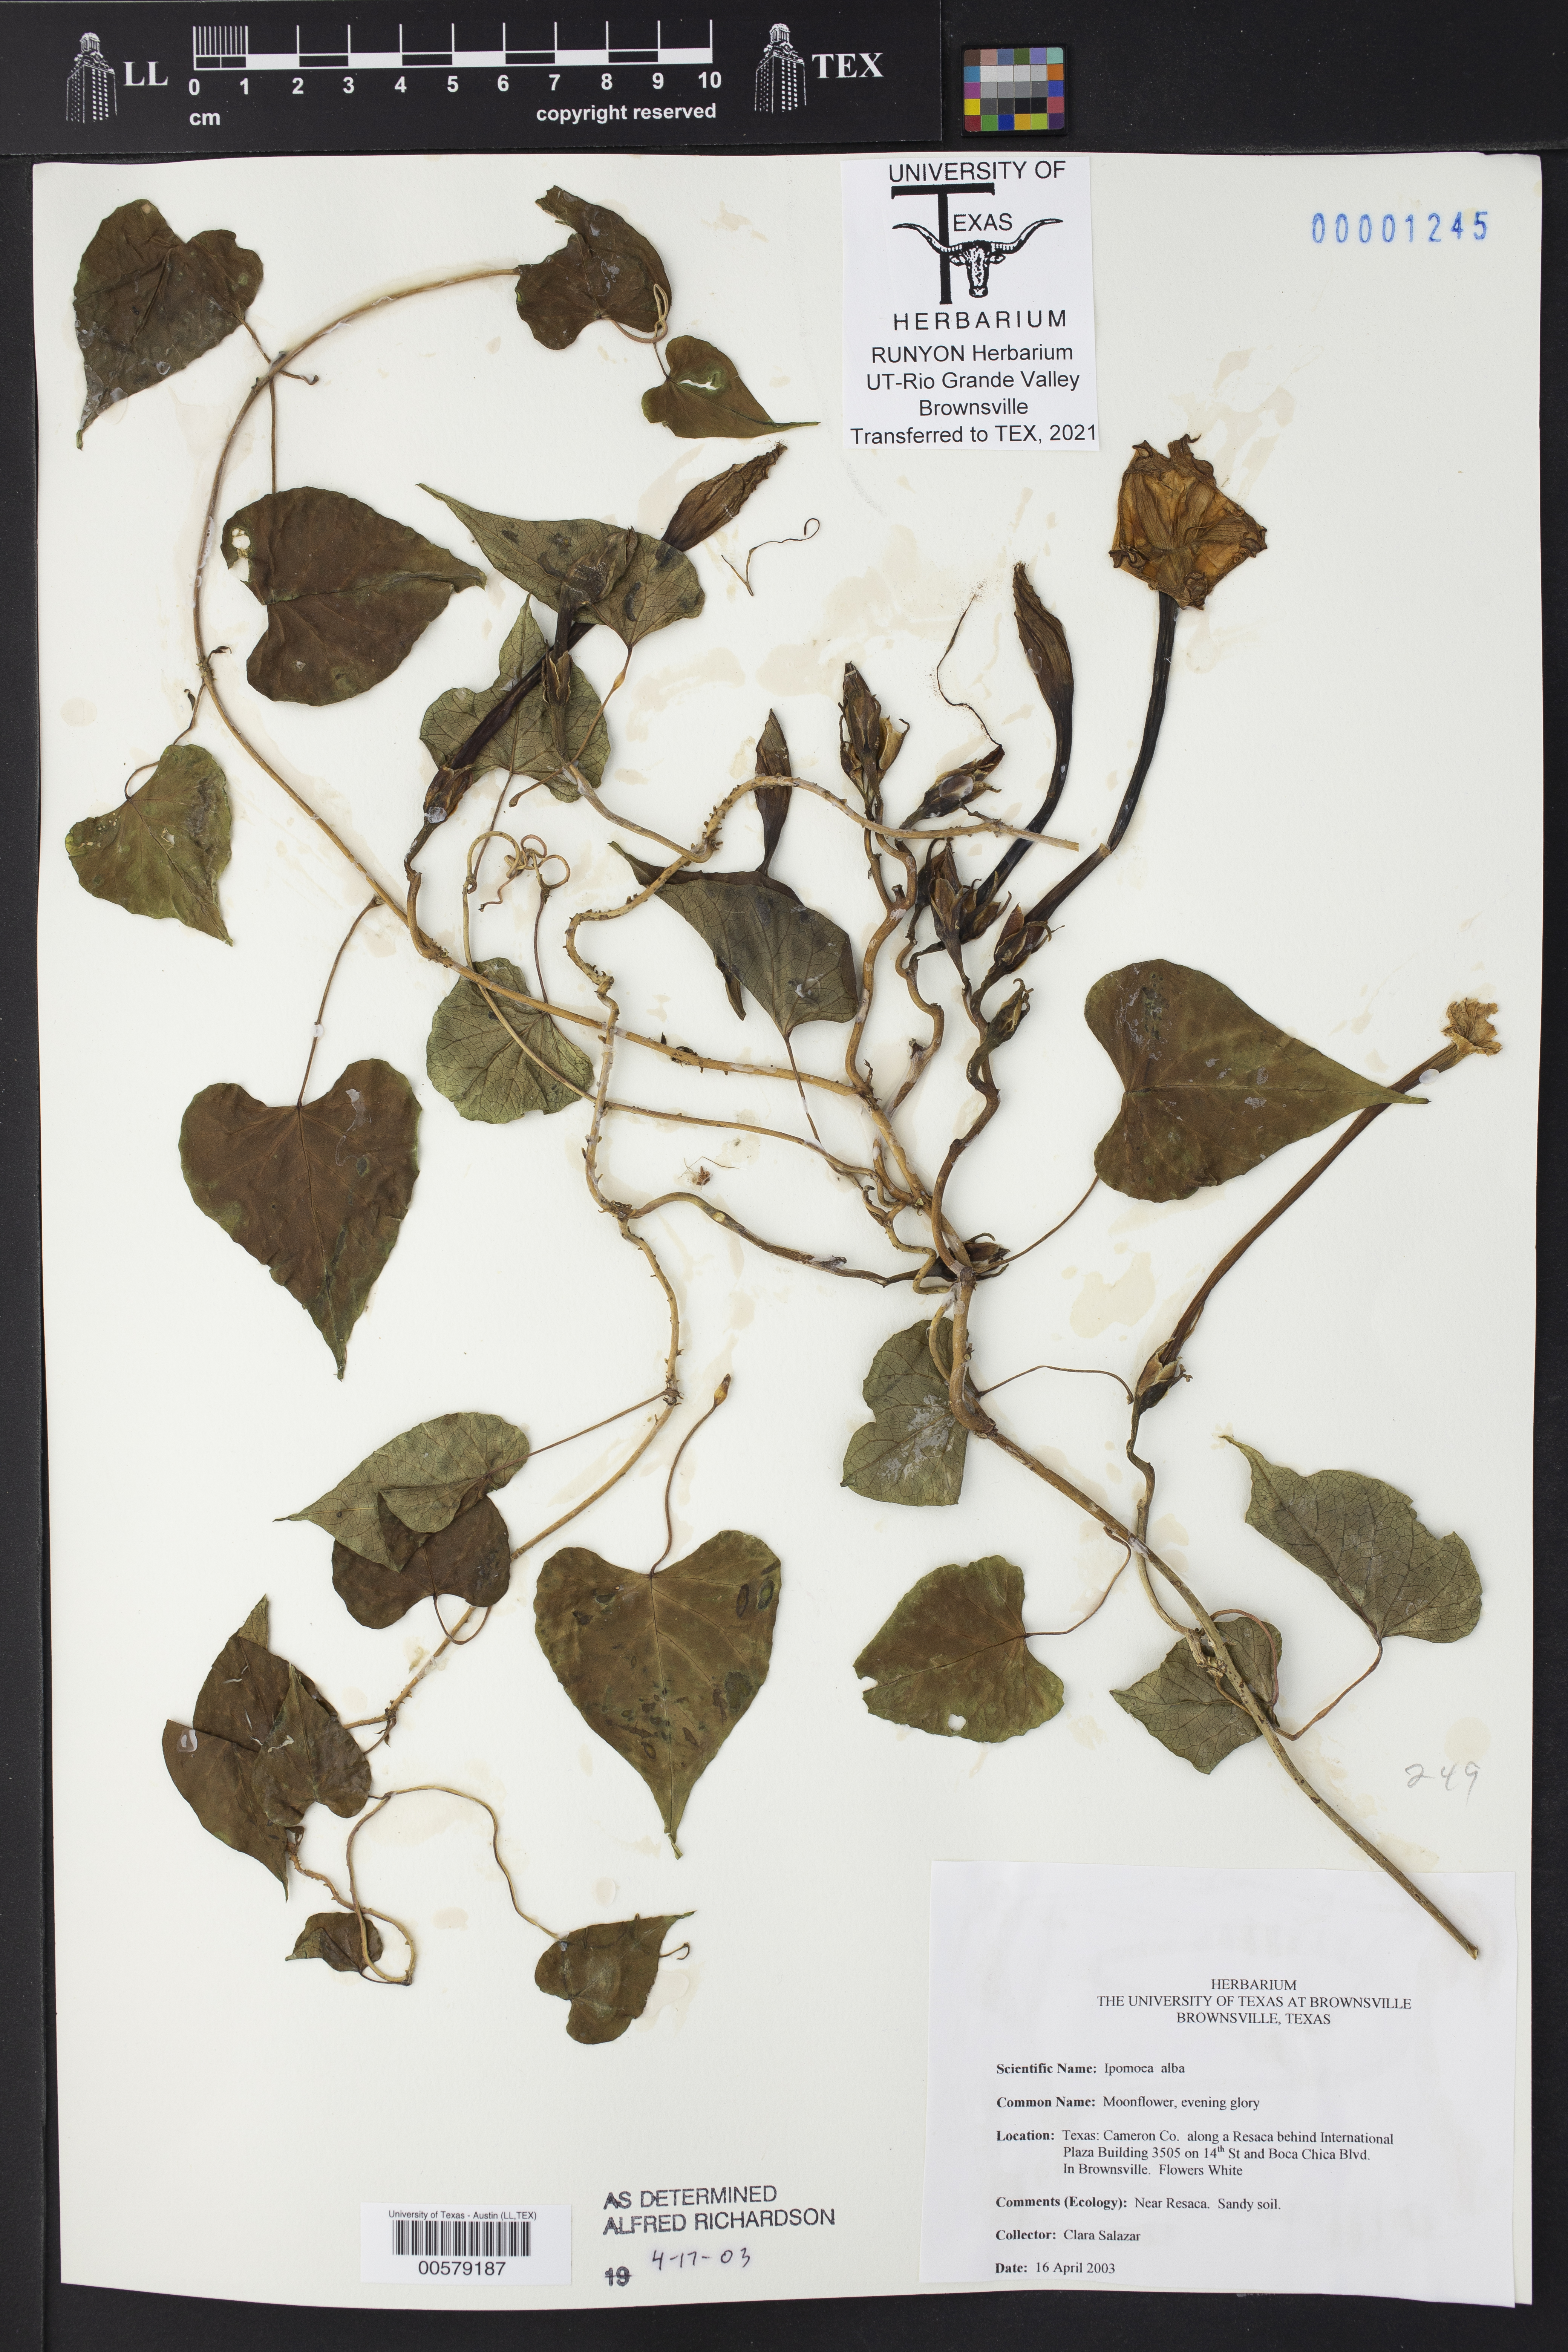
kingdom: Plantae
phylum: Tracheophyta
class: Magnoliopsida
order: Solanales
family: Convolvulaceae
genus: Ipomoea
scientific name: Ipomoea alba
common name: Moonflower
